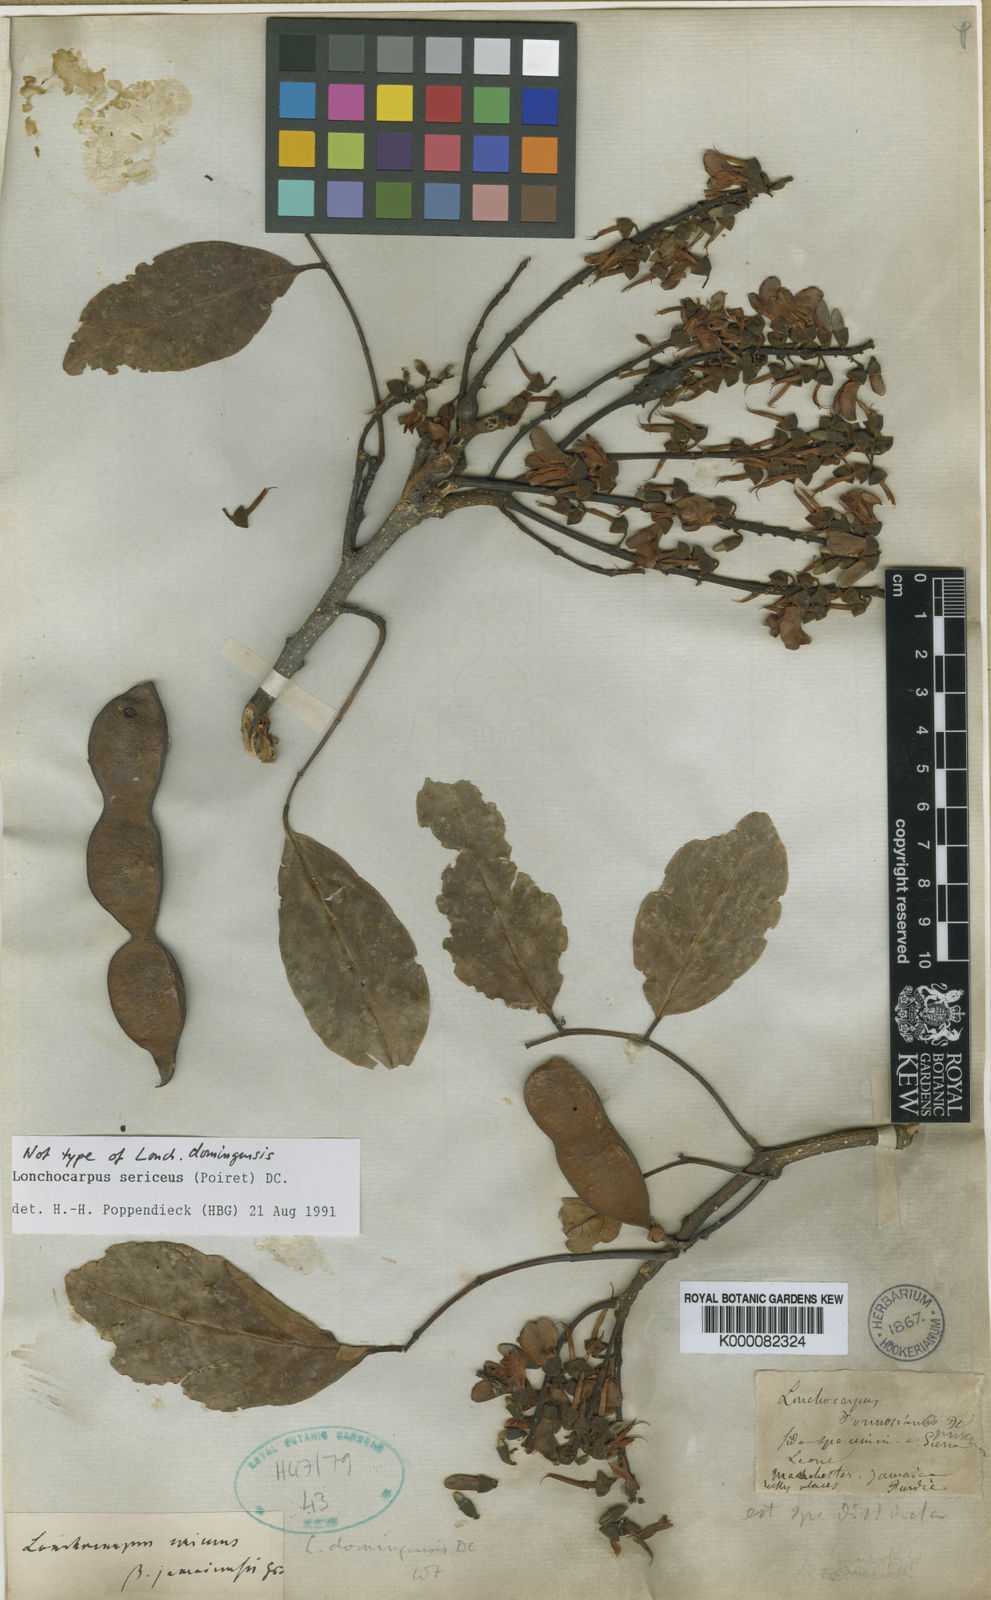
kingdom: Plantae
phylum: Tracheophyta
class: Magnoliopsida
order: Fabales
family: Fabaceae
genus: Lonchocarpus
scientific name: Lonchocarpus sericeus
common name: Savonette
